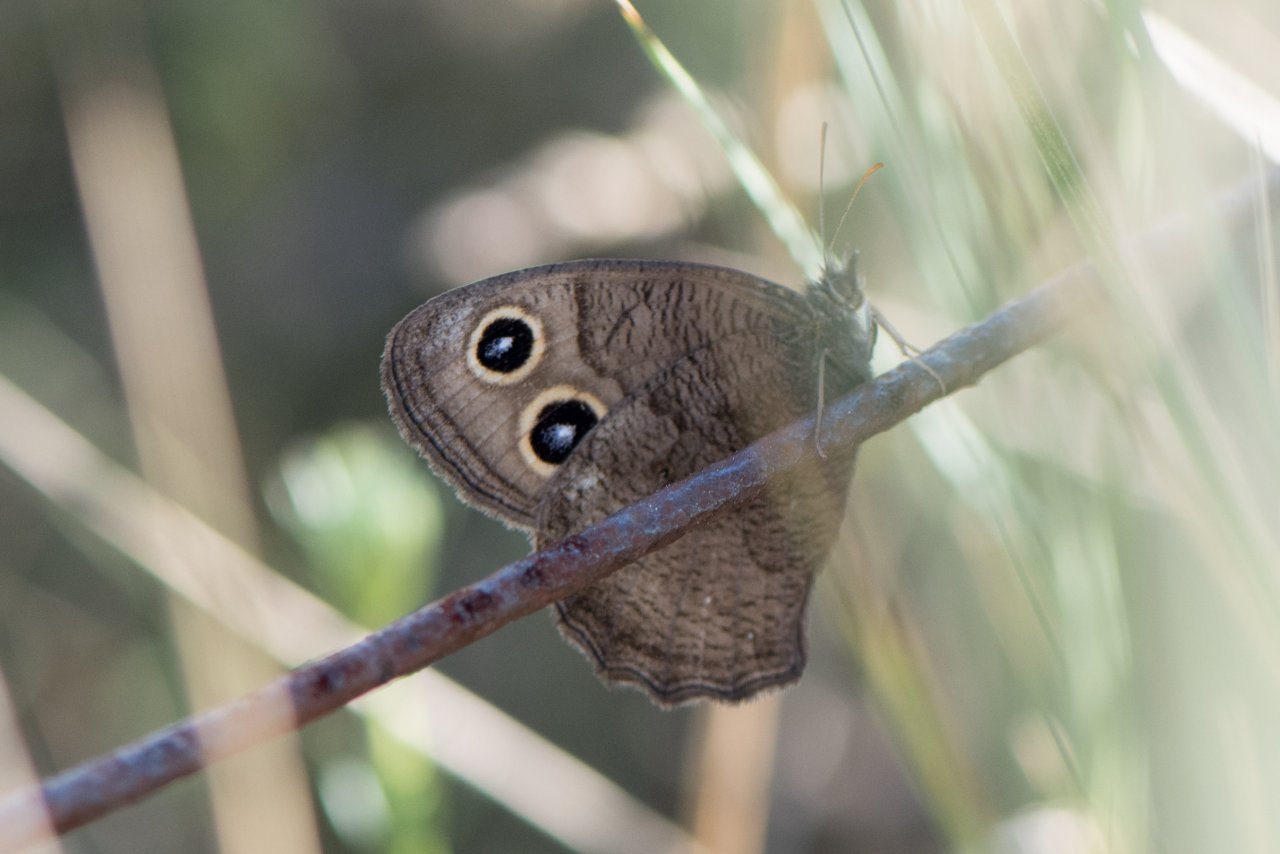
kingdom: Animalia
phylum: Arthropoda
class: Insecta
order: Lepidoptera
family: Nymphalidae
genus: Cercyonis
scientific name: Cercyonis pegala
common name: Common Wood-Nymph
